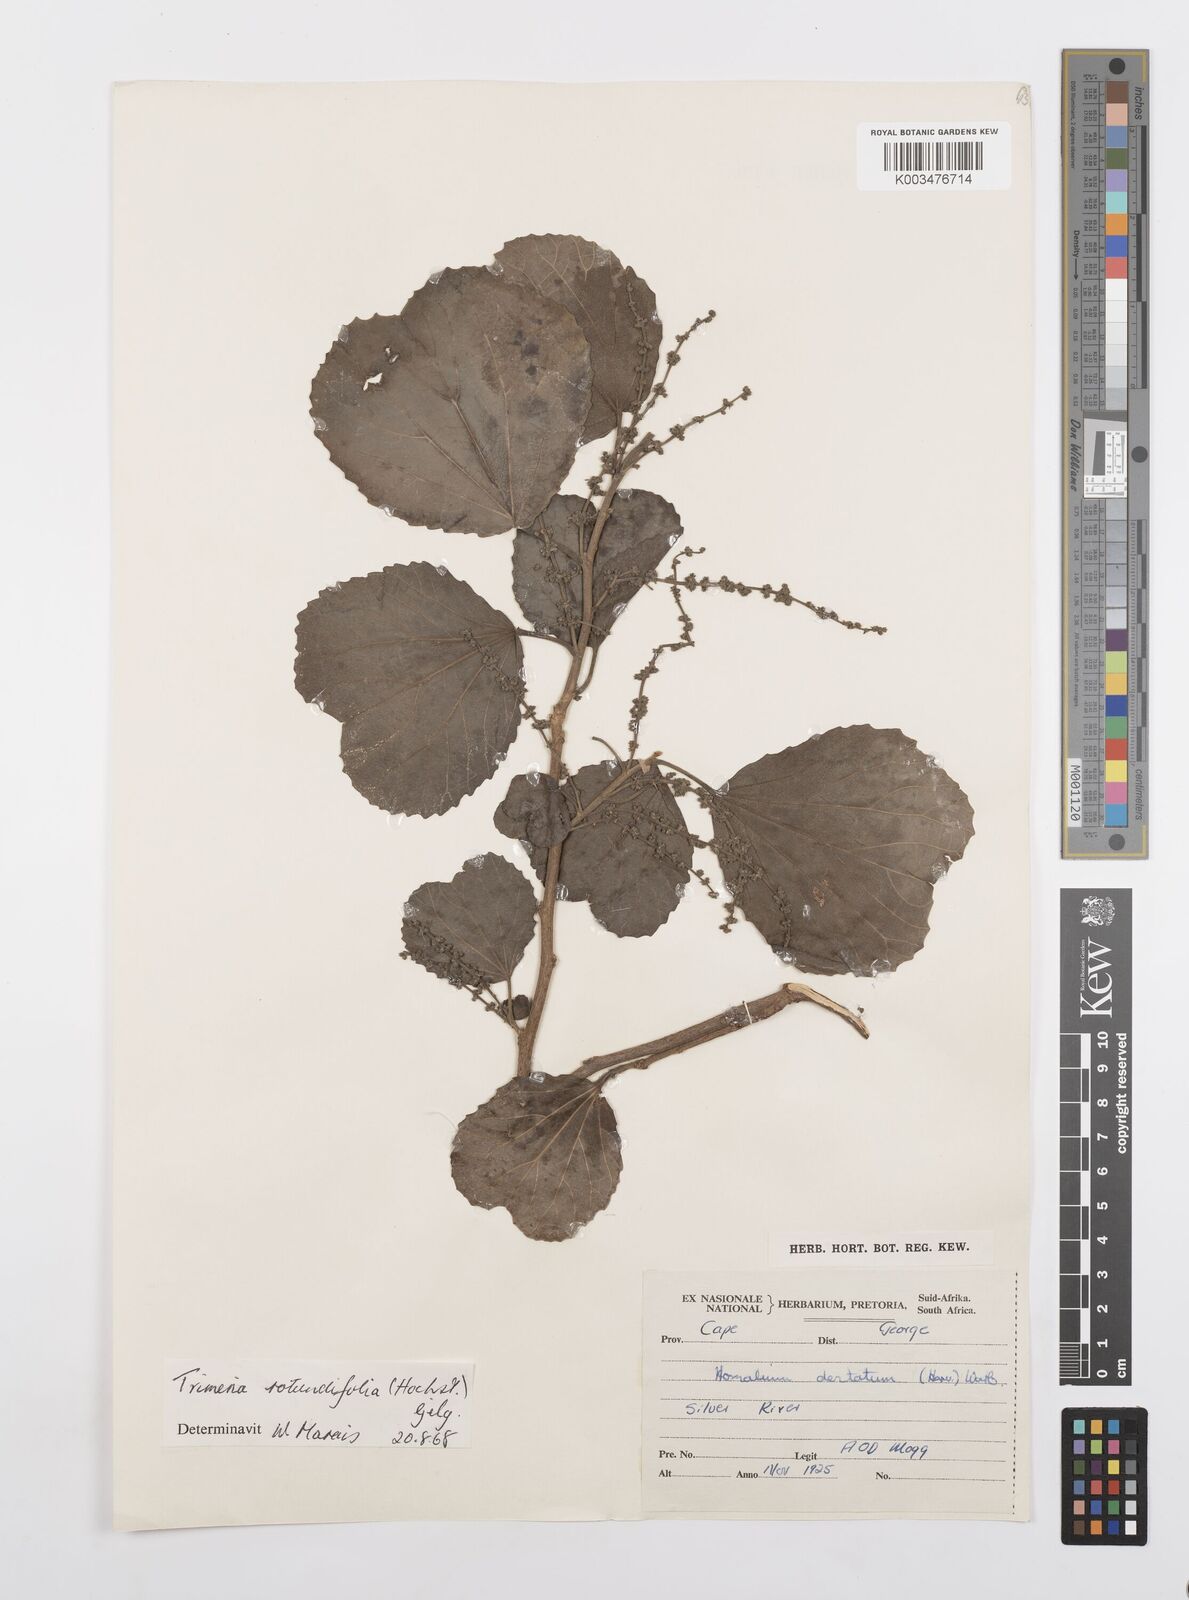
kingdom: Plantae
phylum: Tracheophyta
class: Magnoliopsida
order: Malpighiales
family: Salicaceae
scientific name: Salicaceae
